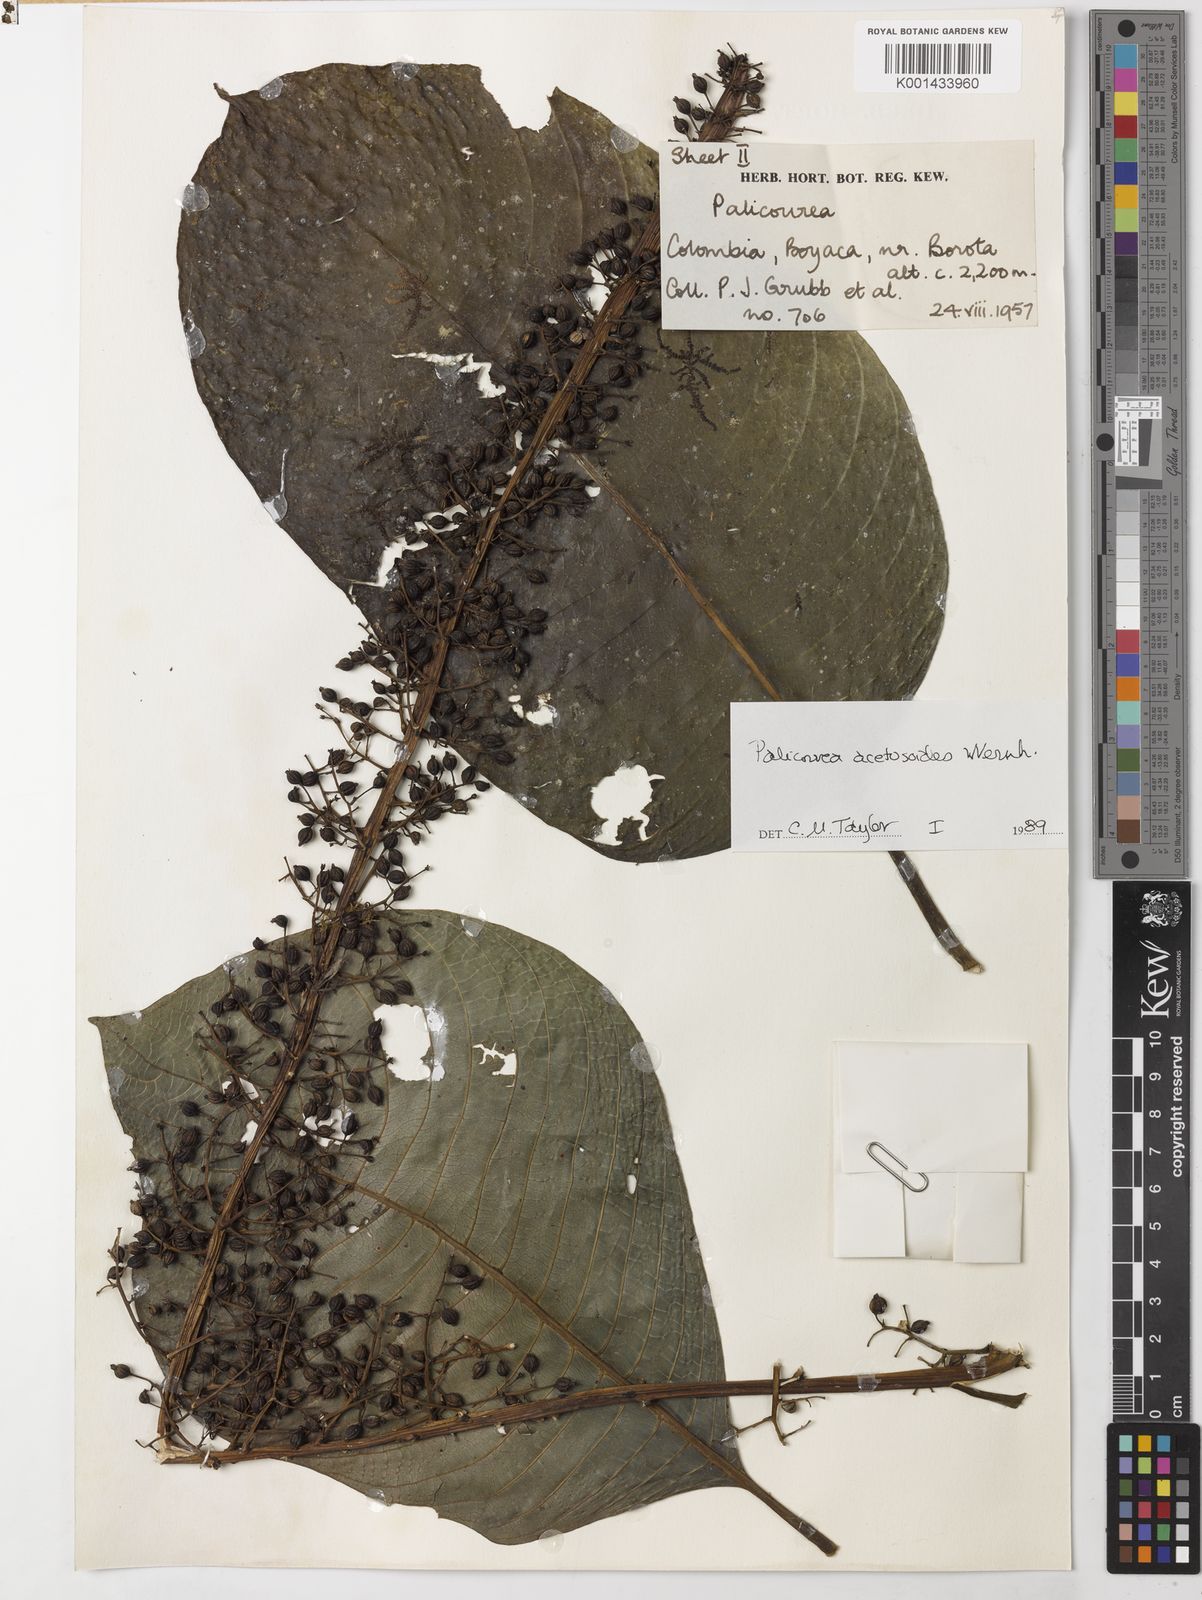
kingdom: Plantae
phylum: Tracheophyta
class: Magnoliopsida
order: Gentianales
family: Rubiaceae
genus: Palicourea
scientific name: Palicourea acetosoides
